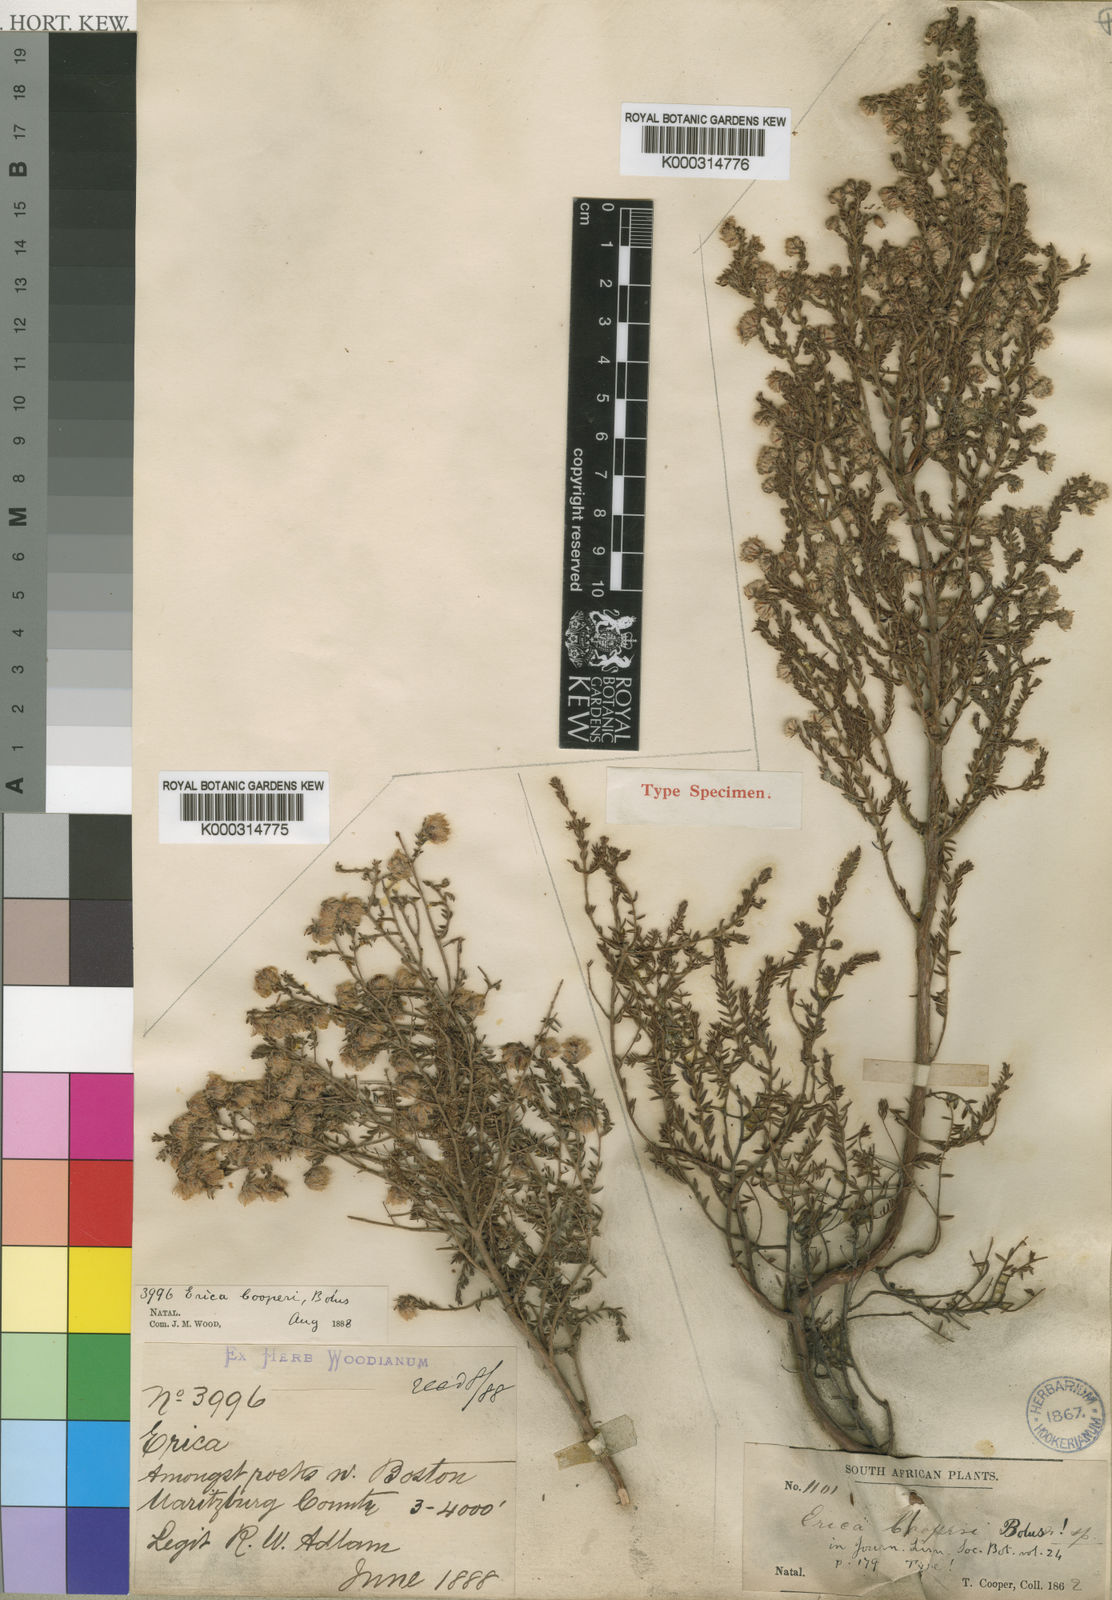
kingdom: Plantae
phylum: Tracheophyta
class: Magnoliopsida
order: Ericales
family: Ericaceae
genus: Erica
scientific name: Erica cooperi
